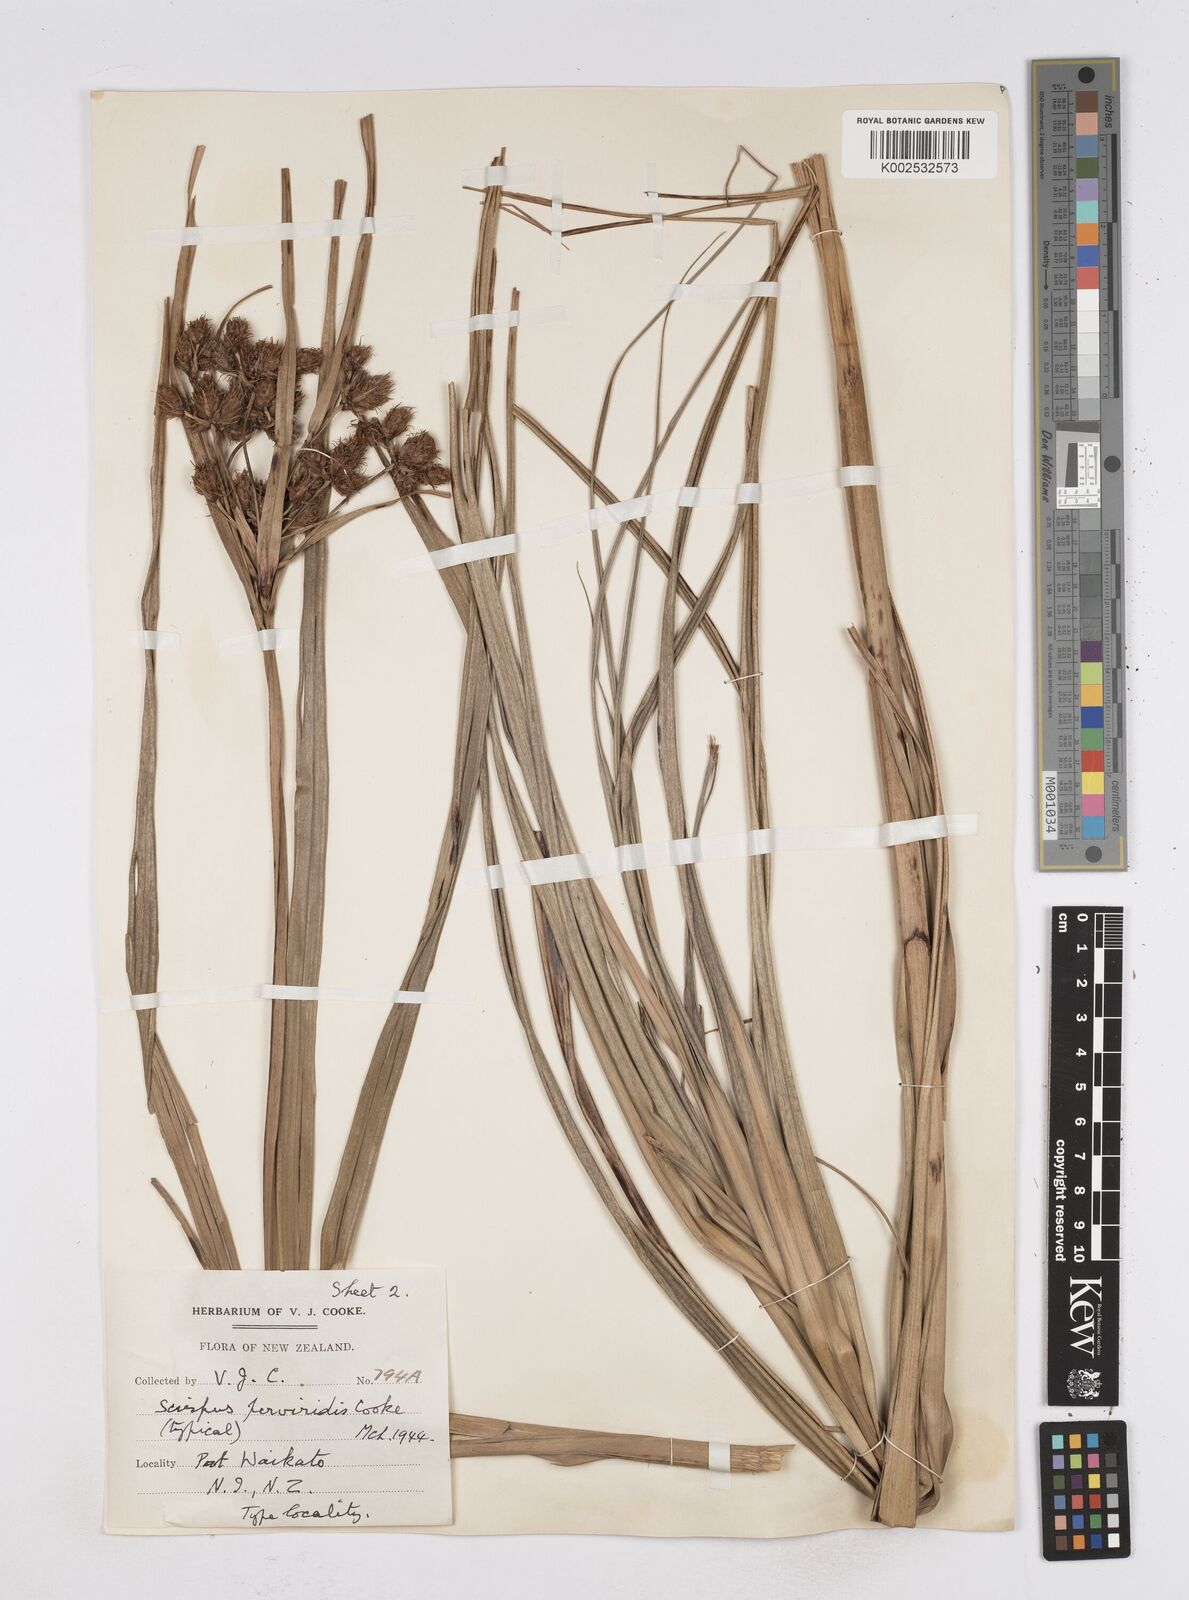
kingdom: Plantae
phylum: Tracheophyta
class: Liliopsida
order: Poales
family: Cyperaceae
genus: Bolboschoenus
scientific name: Bolboschoenus
